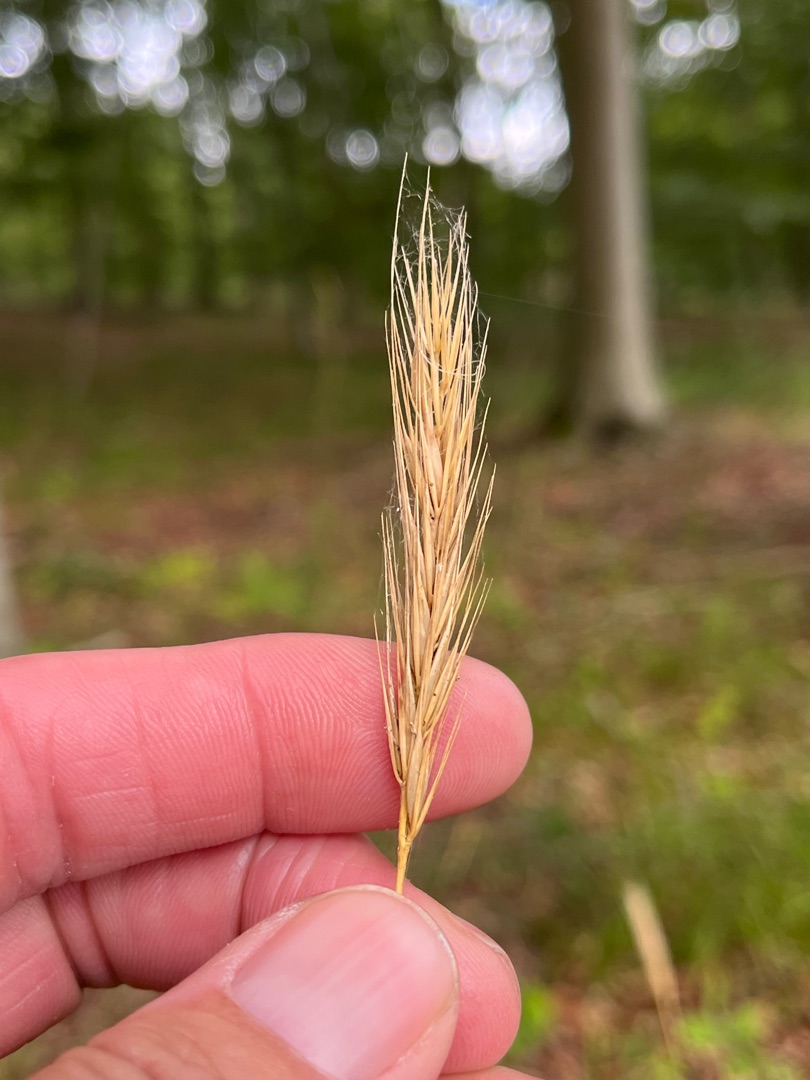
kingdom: Plantae
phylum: Tracheophyta
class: Liliopsida
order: Poales
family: Poaceae
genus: Hordelymus
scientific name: Hordelymus europaeus
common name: Skovbyg
